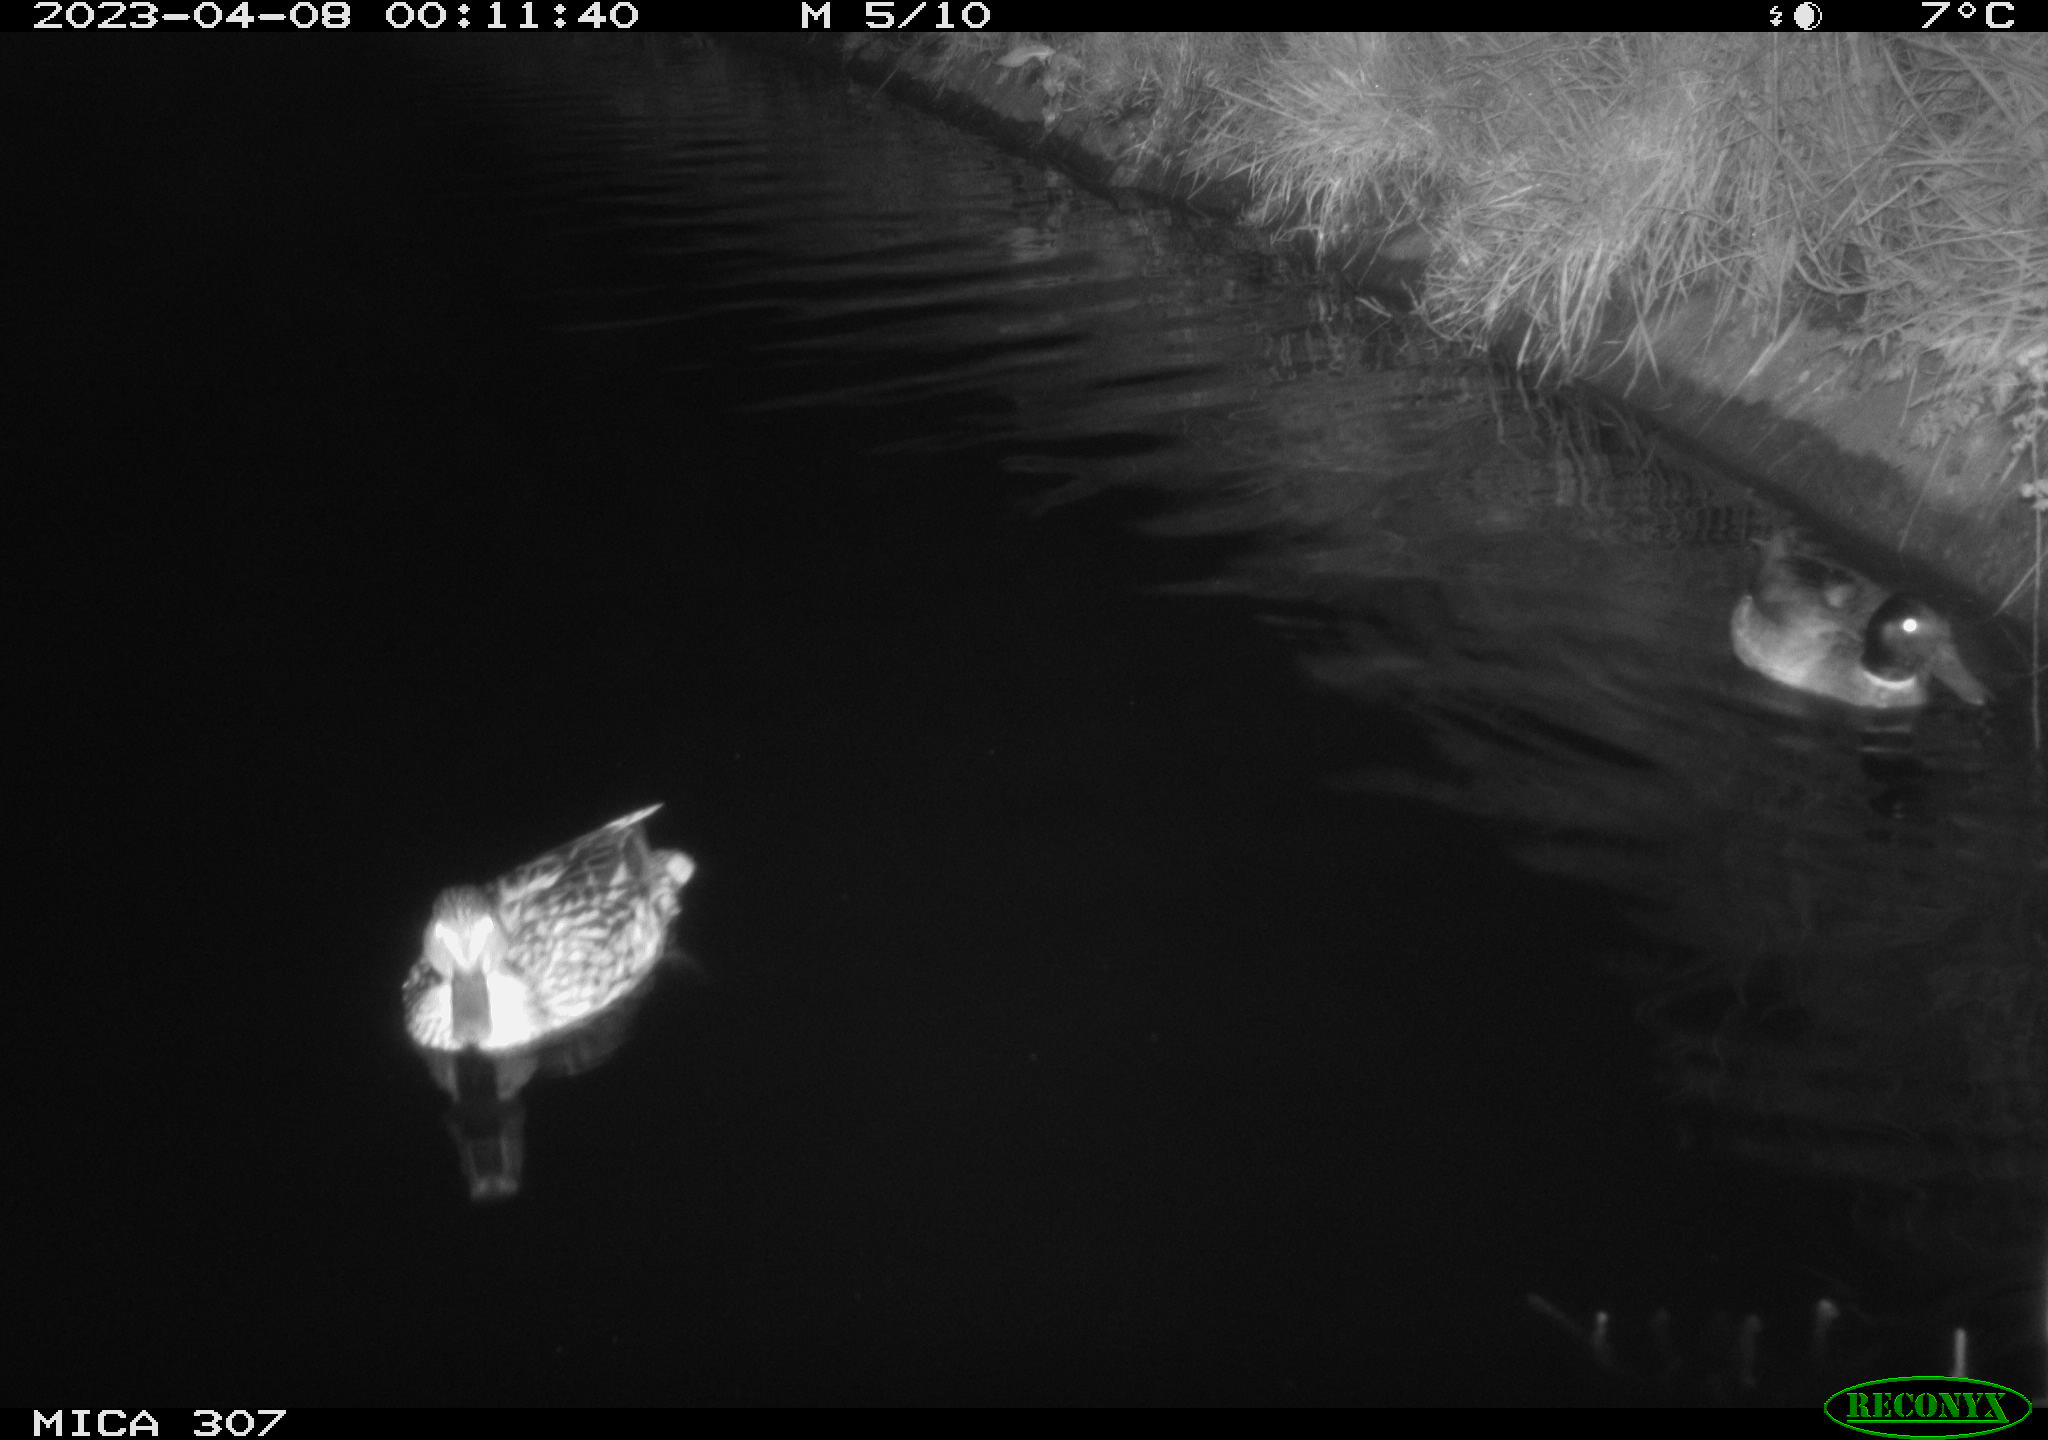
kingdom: Animalia
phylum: Chordata
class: Aves
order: Anseriformes
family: Anatidae
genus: Anas
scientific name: Anas
